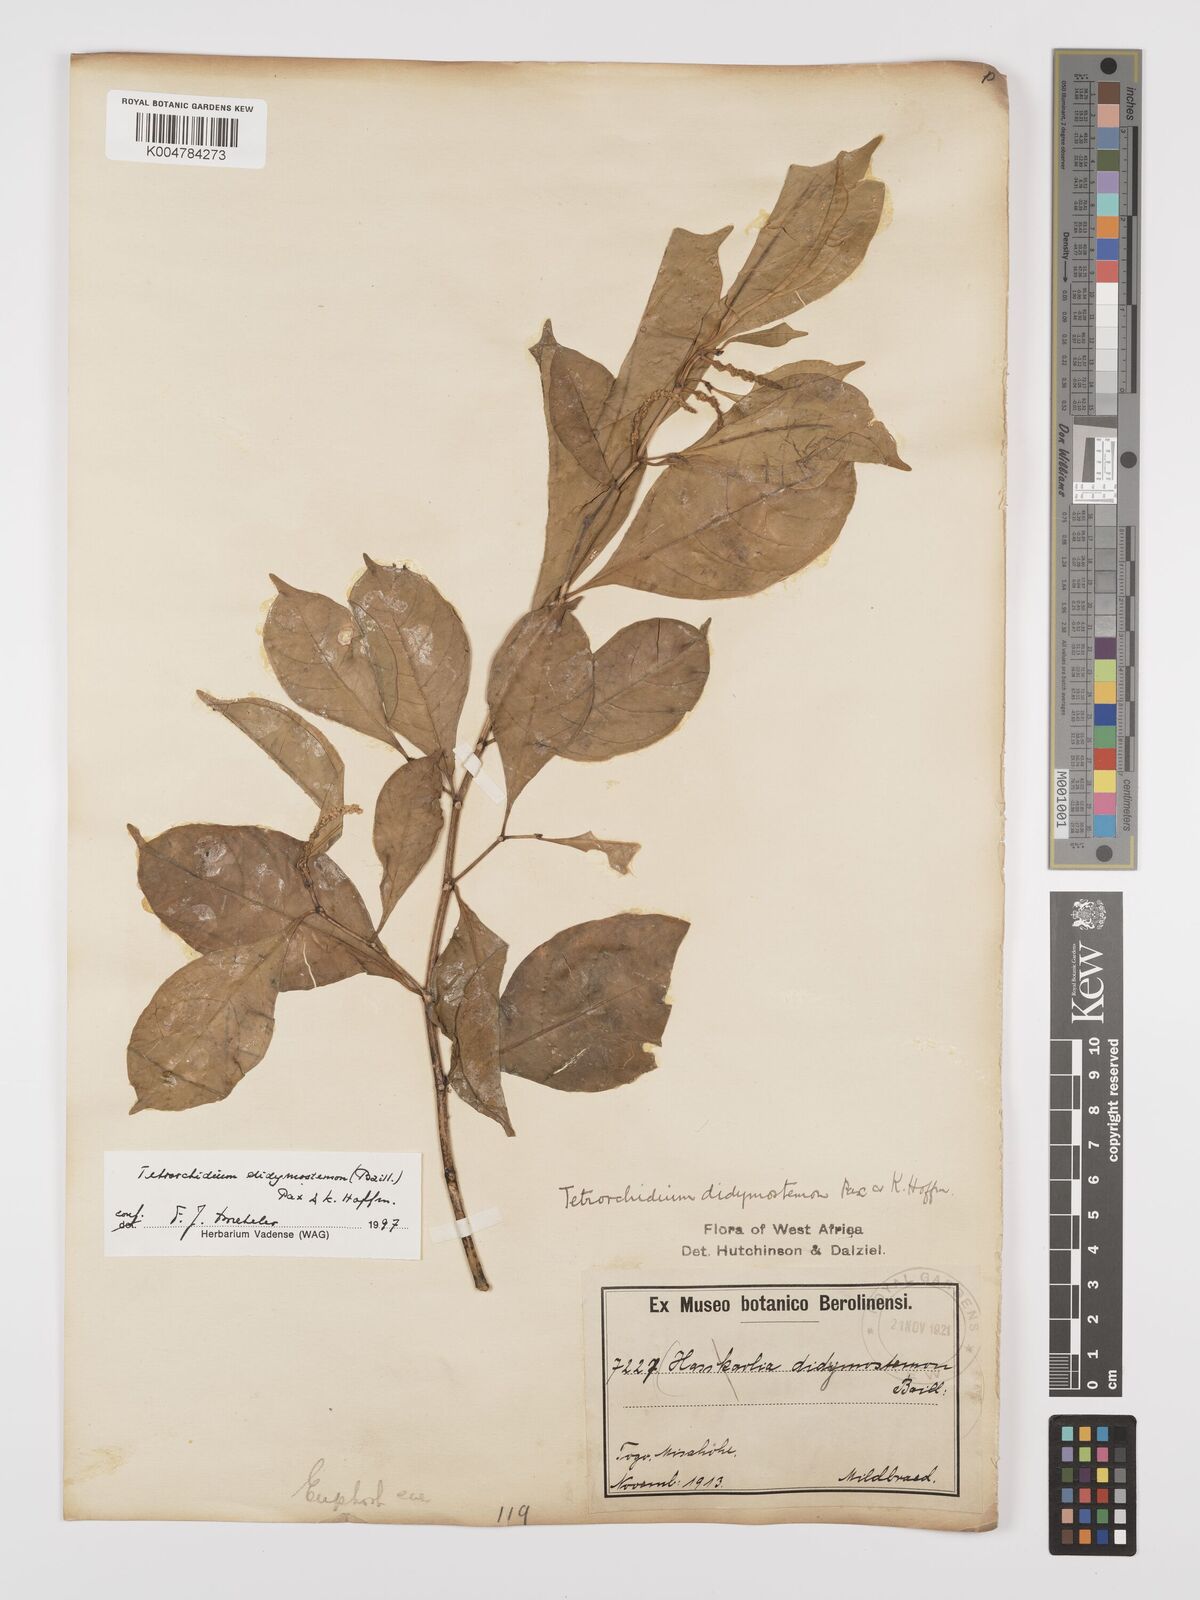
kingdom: Plantae
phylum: Tracheophyta
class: Magnoliopsida
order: Malpighiales
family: Euphorbiaceae
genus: Tetrorchidium
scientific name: Tetrorchidium didymostemon
